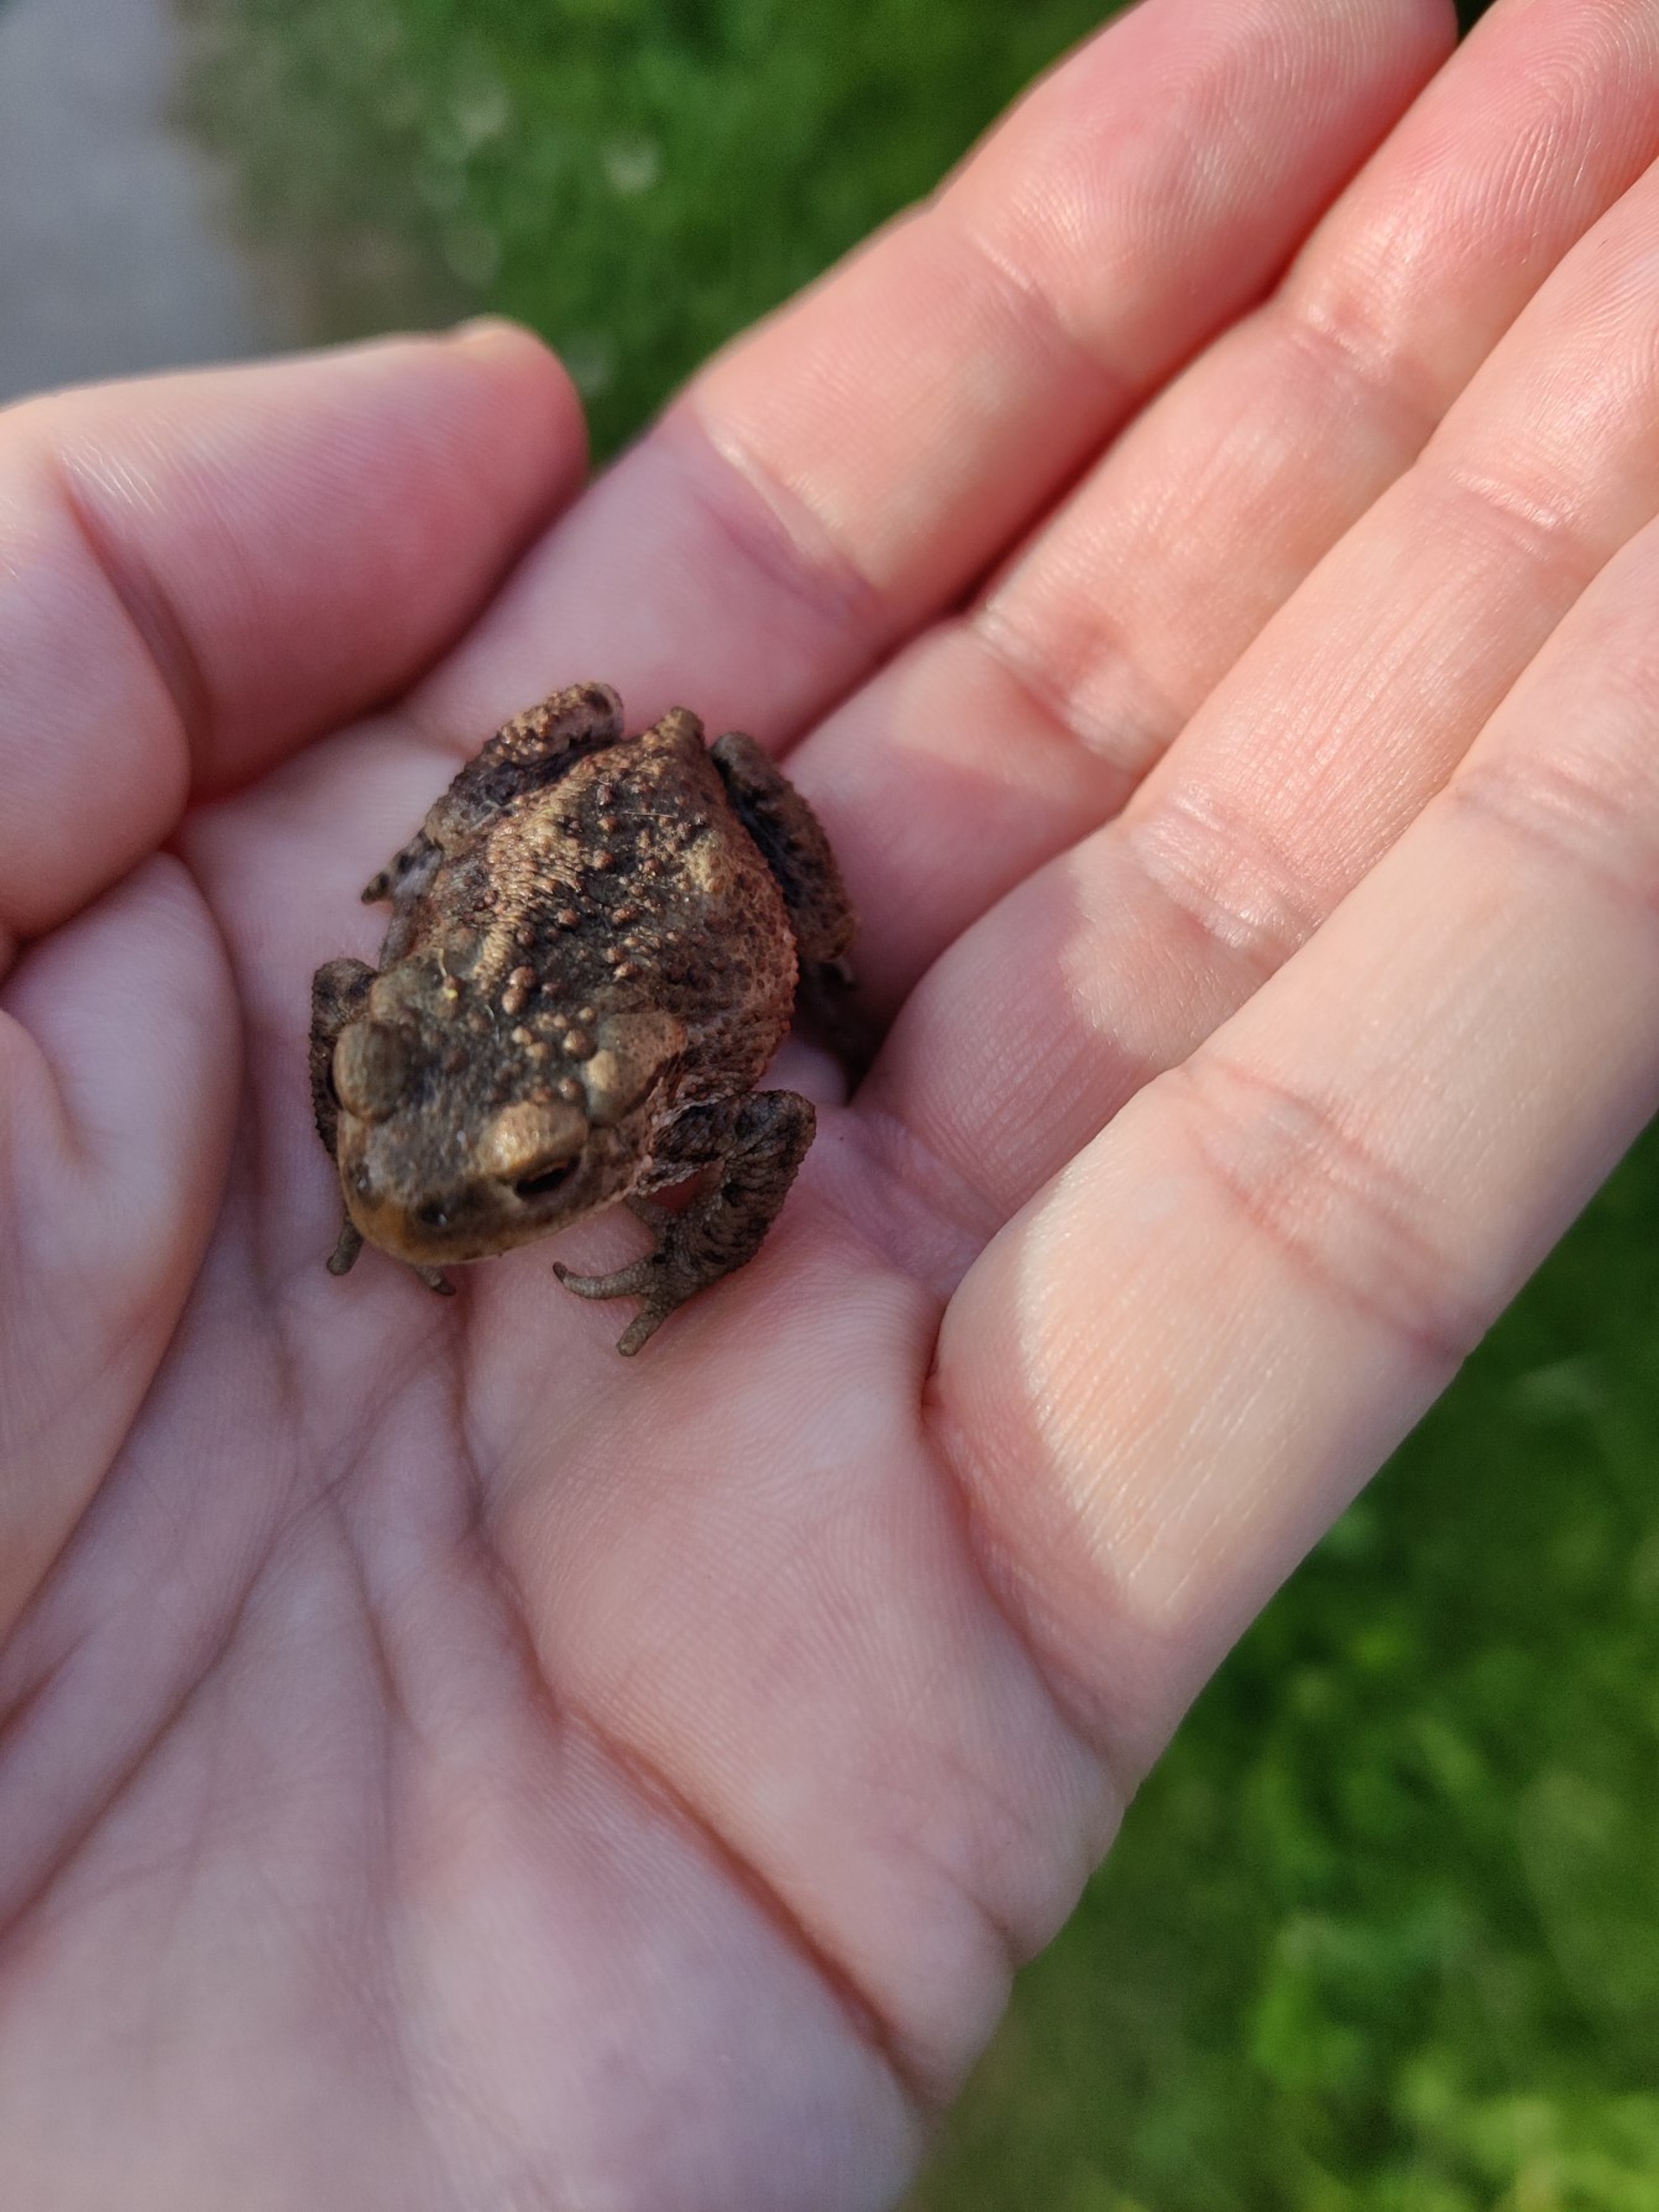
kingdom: Animalia
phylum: Chordata
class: Amphibia
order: Anura
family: Bufonidae
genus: Bufo
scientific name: Bufo bufo
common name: Skrubtudse
